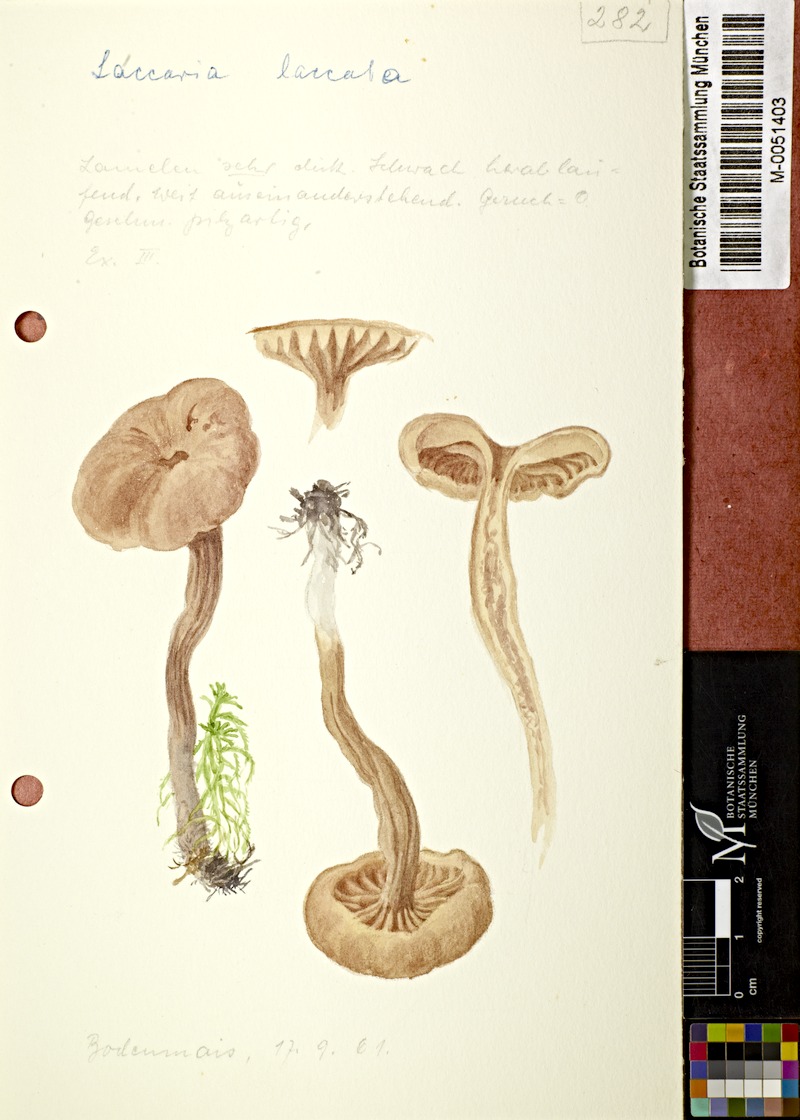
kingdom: Fungi
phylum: Basidiomycota
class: Agaricomycetes
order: Agaricales
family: Hydnangiaceae
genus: Laccaria
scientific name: Laccaria laccata
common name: Deceiver
